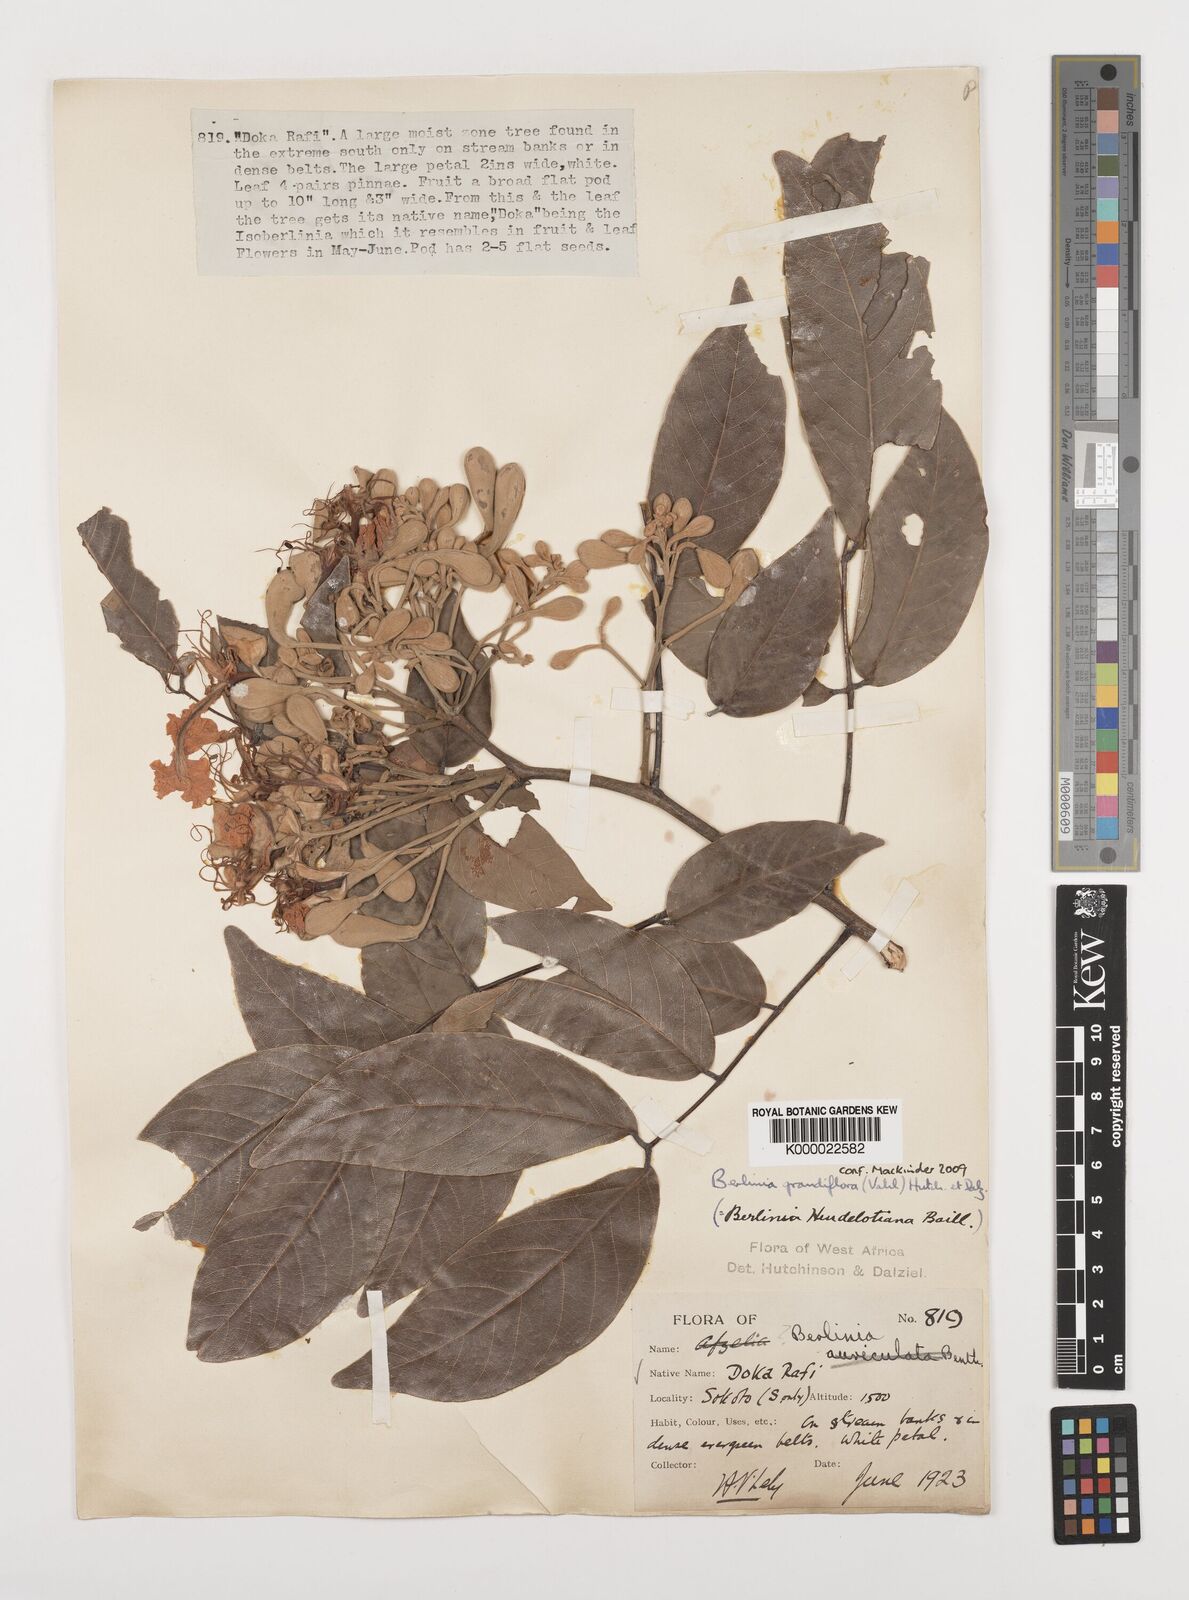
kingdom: Plantae
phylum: Tracheophyta
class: Magnoliopsida
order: Fabales
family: Fabaceae
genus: Berlinia
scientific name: Berlinia grandiflora
